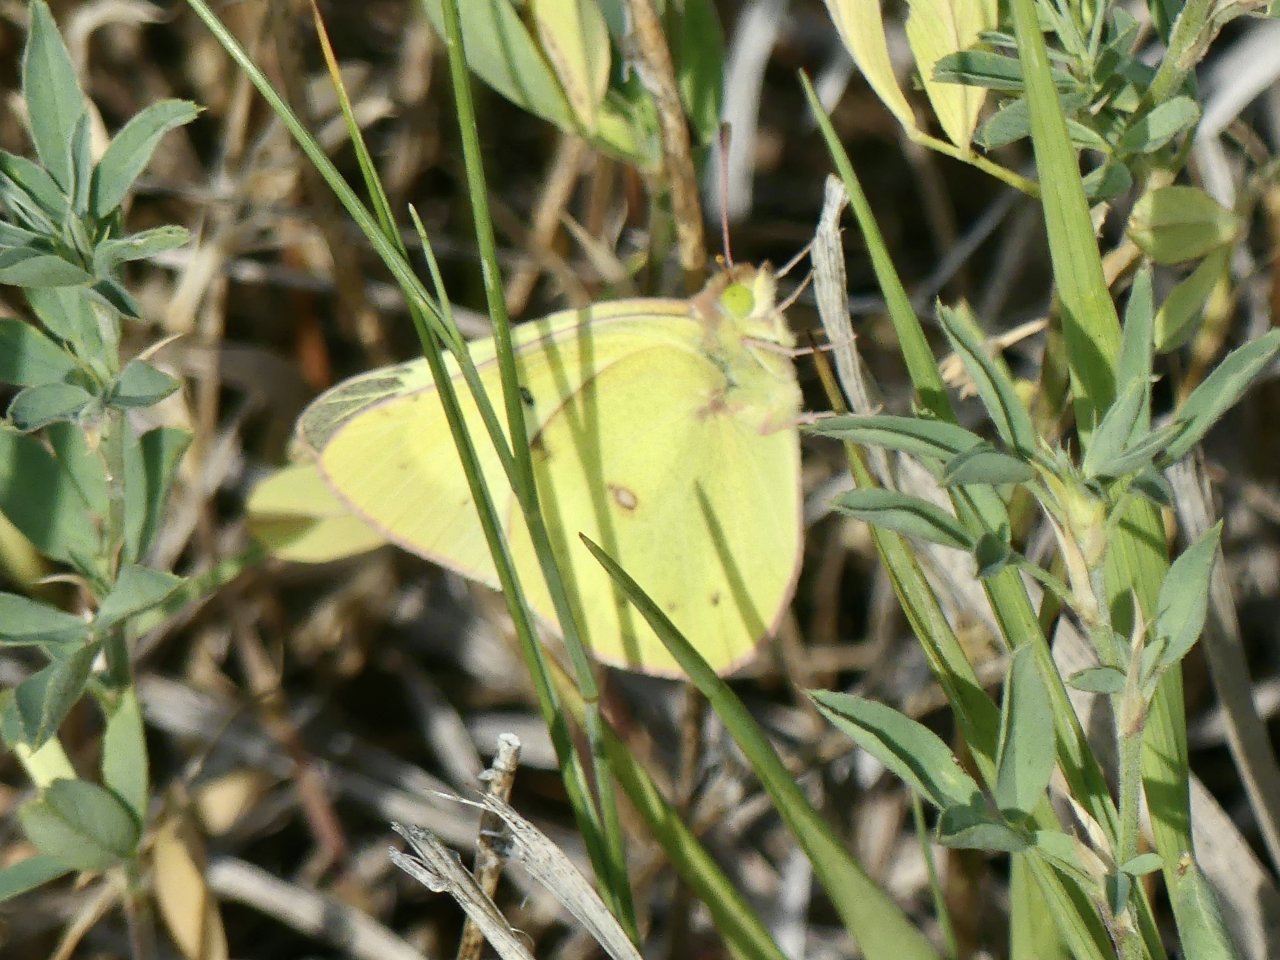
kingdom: Animalia
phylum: Arthropoda
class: Insecta
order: Lepidoptera
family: Pieridae
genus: Colias
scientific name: Colias philodice
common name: Clouded Sulphur
